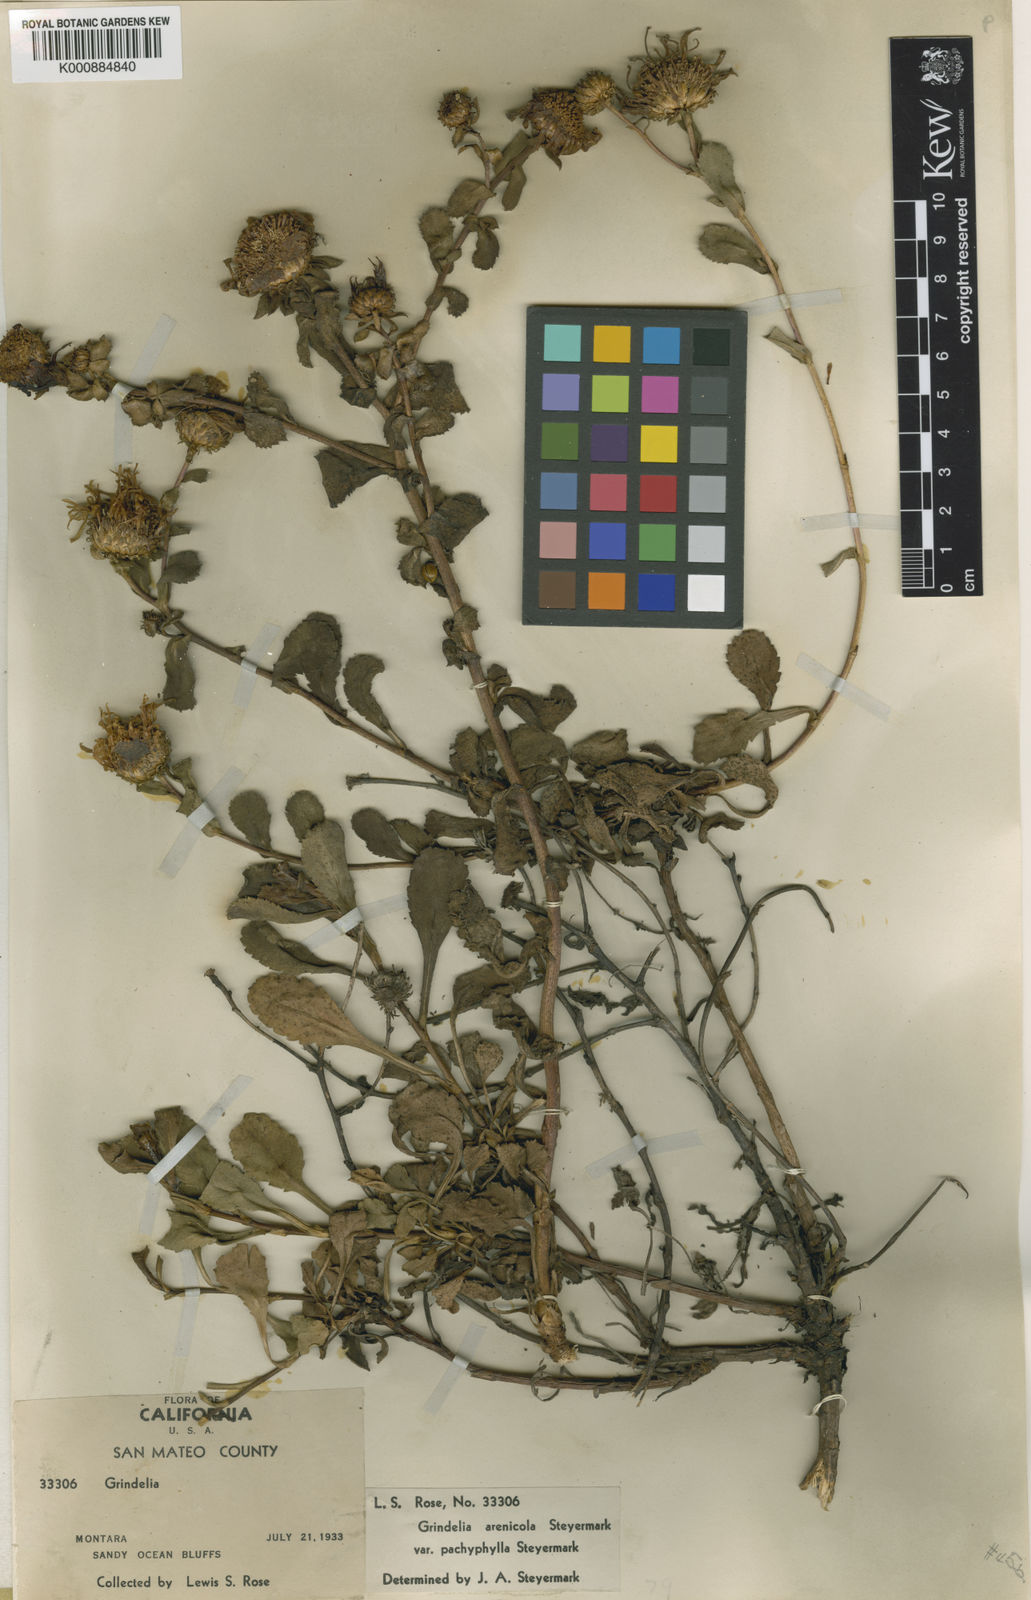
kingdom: Plantae
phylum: Tracheophyta
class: Magnoliopsida
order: Asterales
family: Asteraceae
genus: Grindelia
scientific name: Grindelia hirsutula
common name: Hairy gumweed
